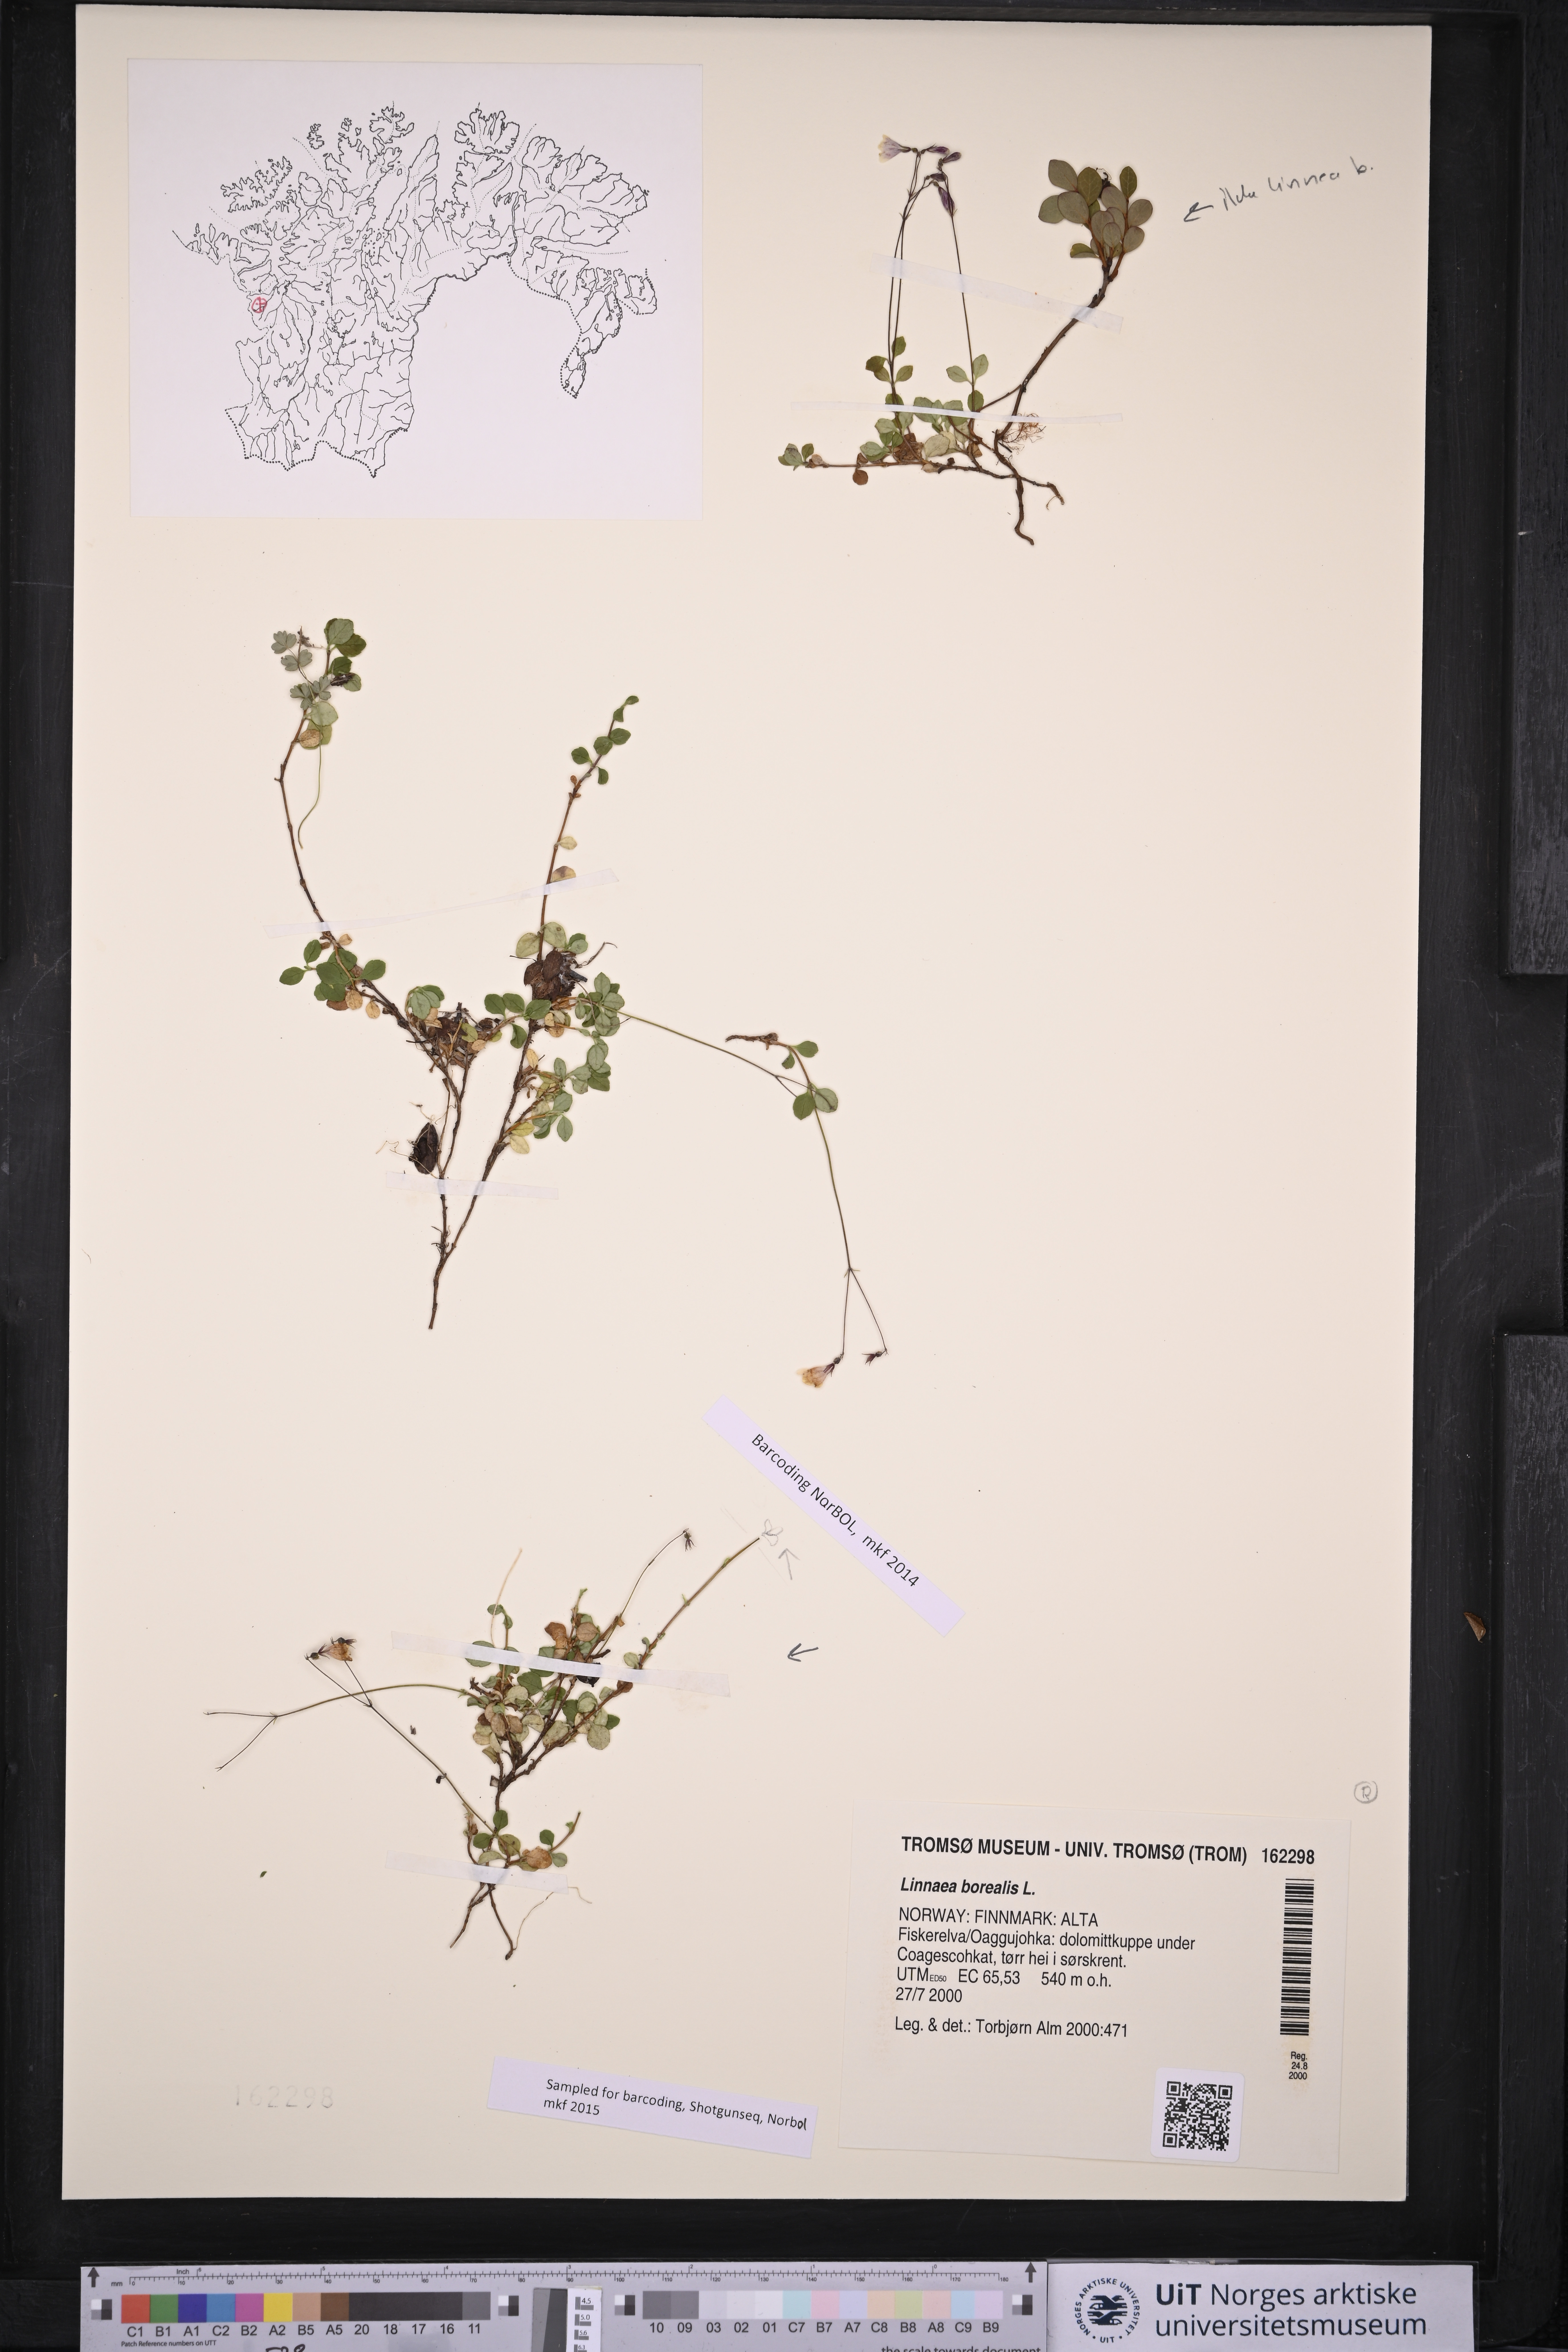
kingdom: Plantae
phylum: Tracheophyta
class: Magnoliopsida
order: Dipsacales
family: Caprifoliaceae
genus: Linnaea
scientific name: Linnaea borealis
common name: Twinflower
